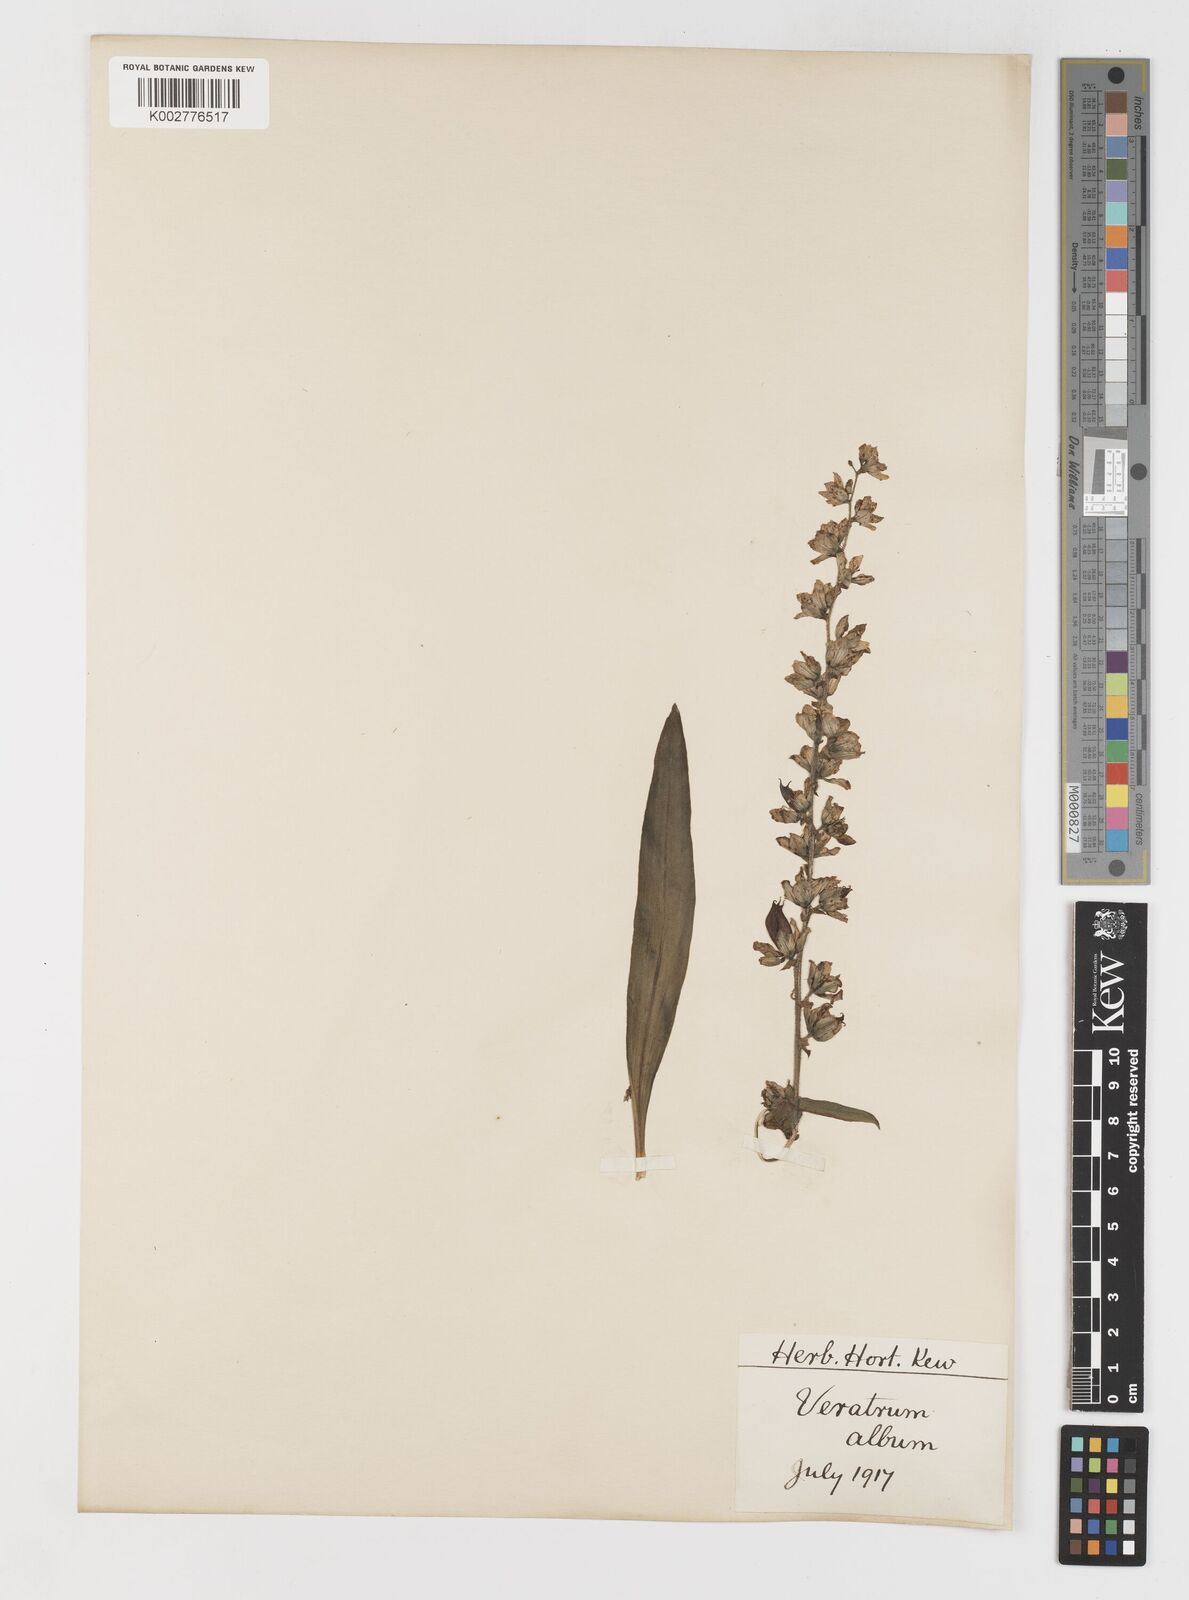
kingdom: Plantae
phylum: Tracheophyta
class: Liliopsida
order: Liliales
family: Melanthiaceae
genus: Veratrum
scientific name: Veratrum album
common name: White veratrum
